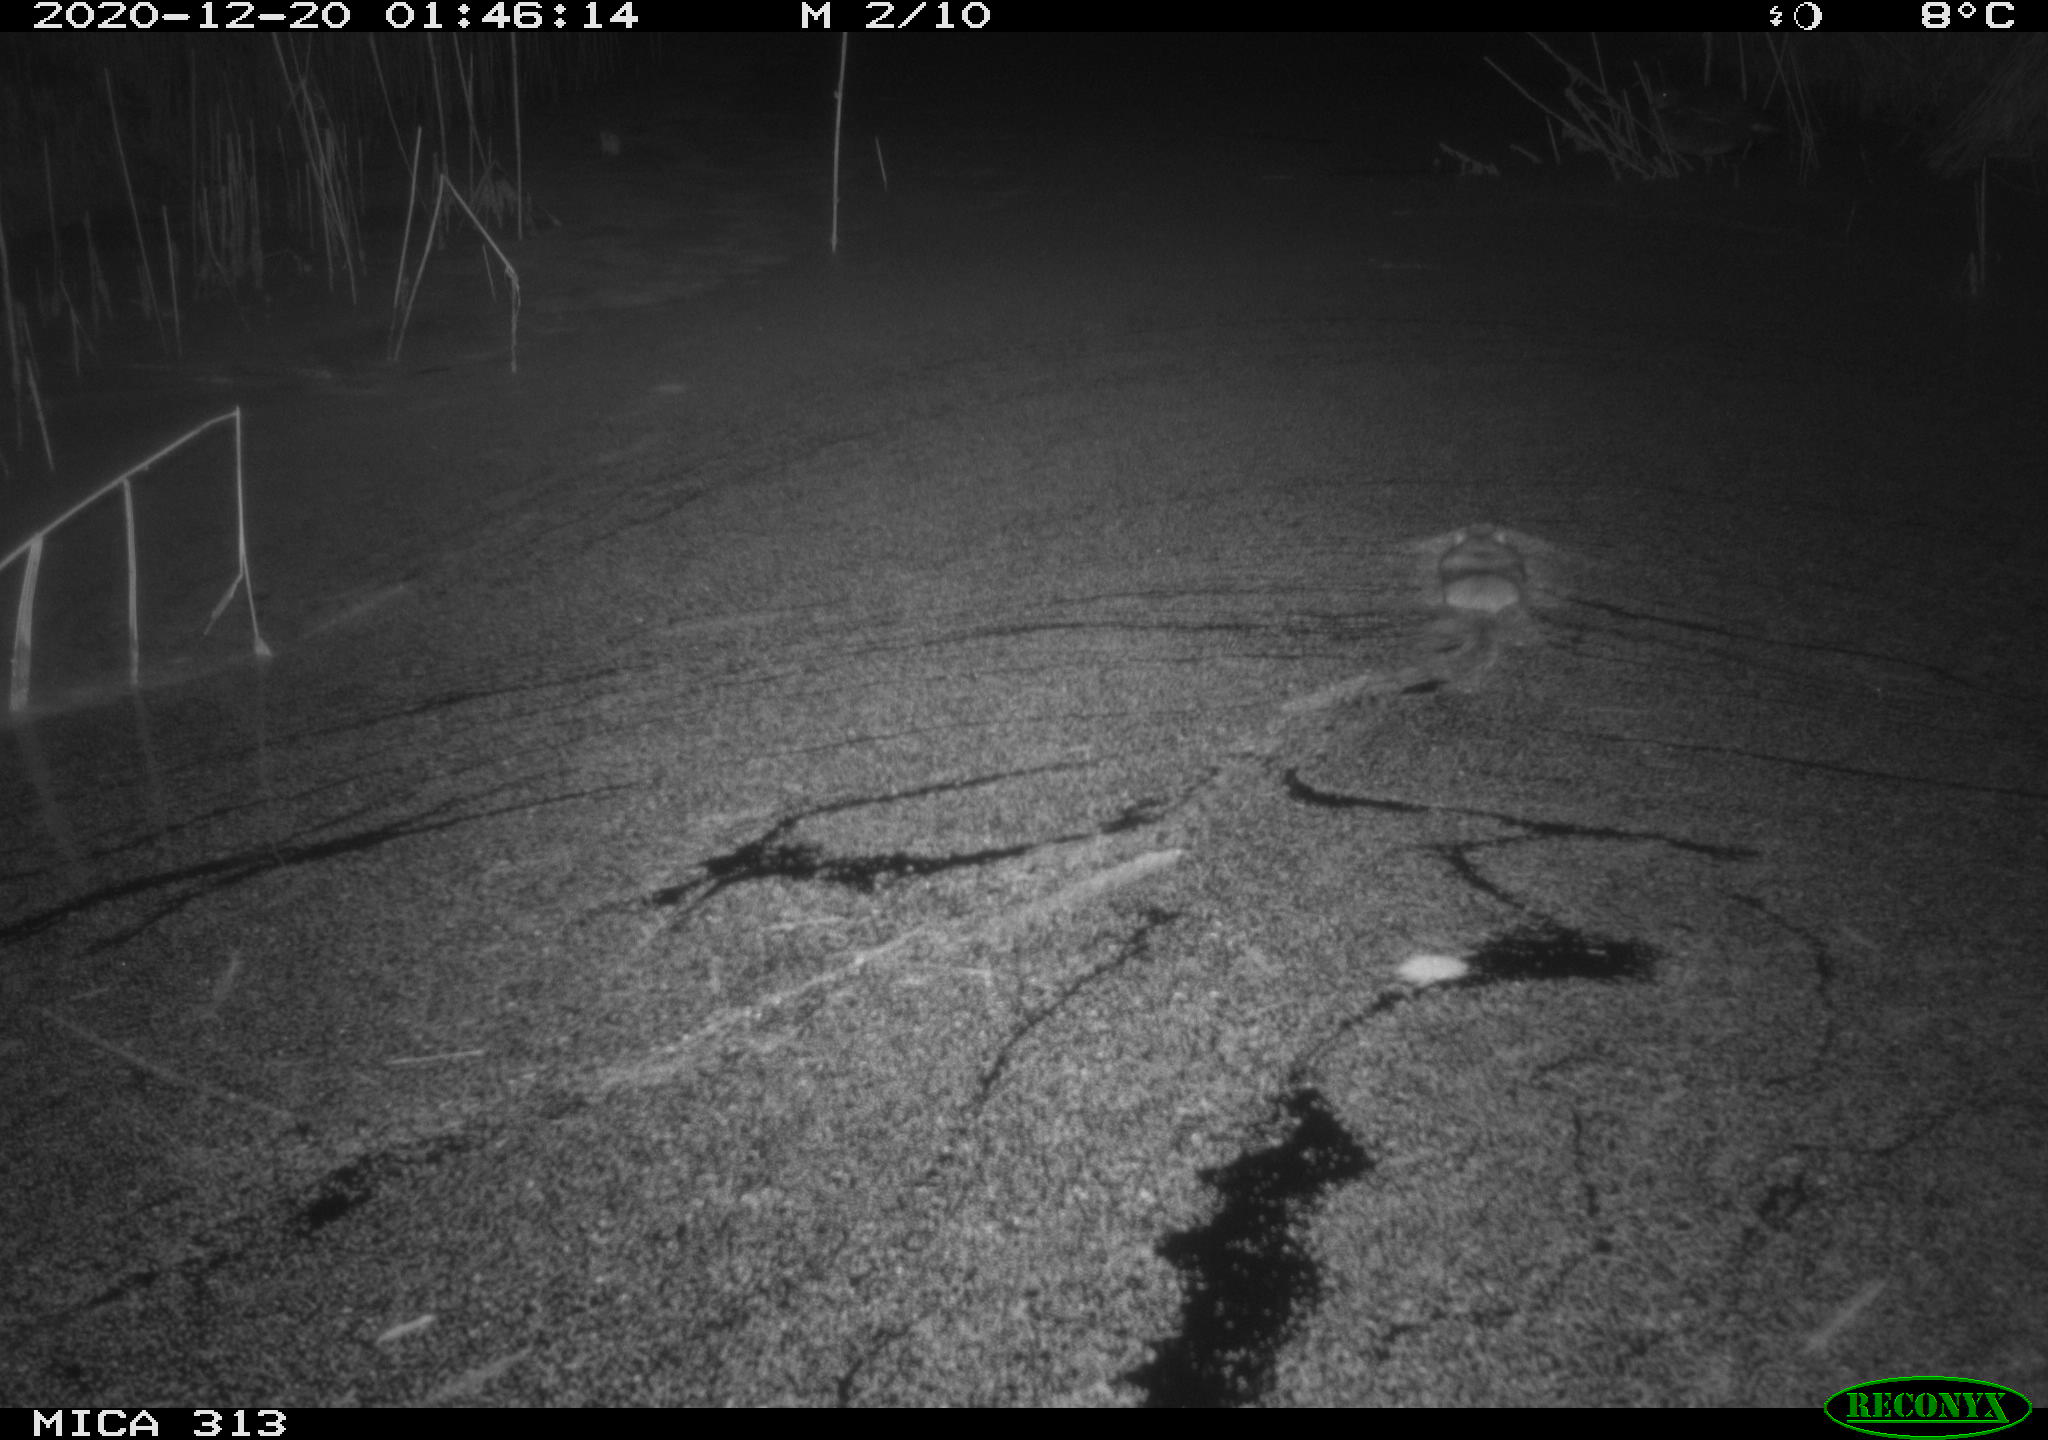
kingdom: Animalia
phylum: Chordata
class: Mammalia
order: Rodentia
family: Muridae
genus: Rattus
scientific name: Rattus norvegicus
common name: Brown rat
